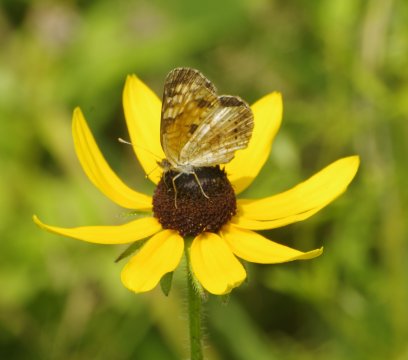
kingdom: Animalia
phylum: Arthropoda
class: Insecta
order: Lepidoptera
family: Nymphalidae
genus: Phyciodes
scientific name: Phyciodes
